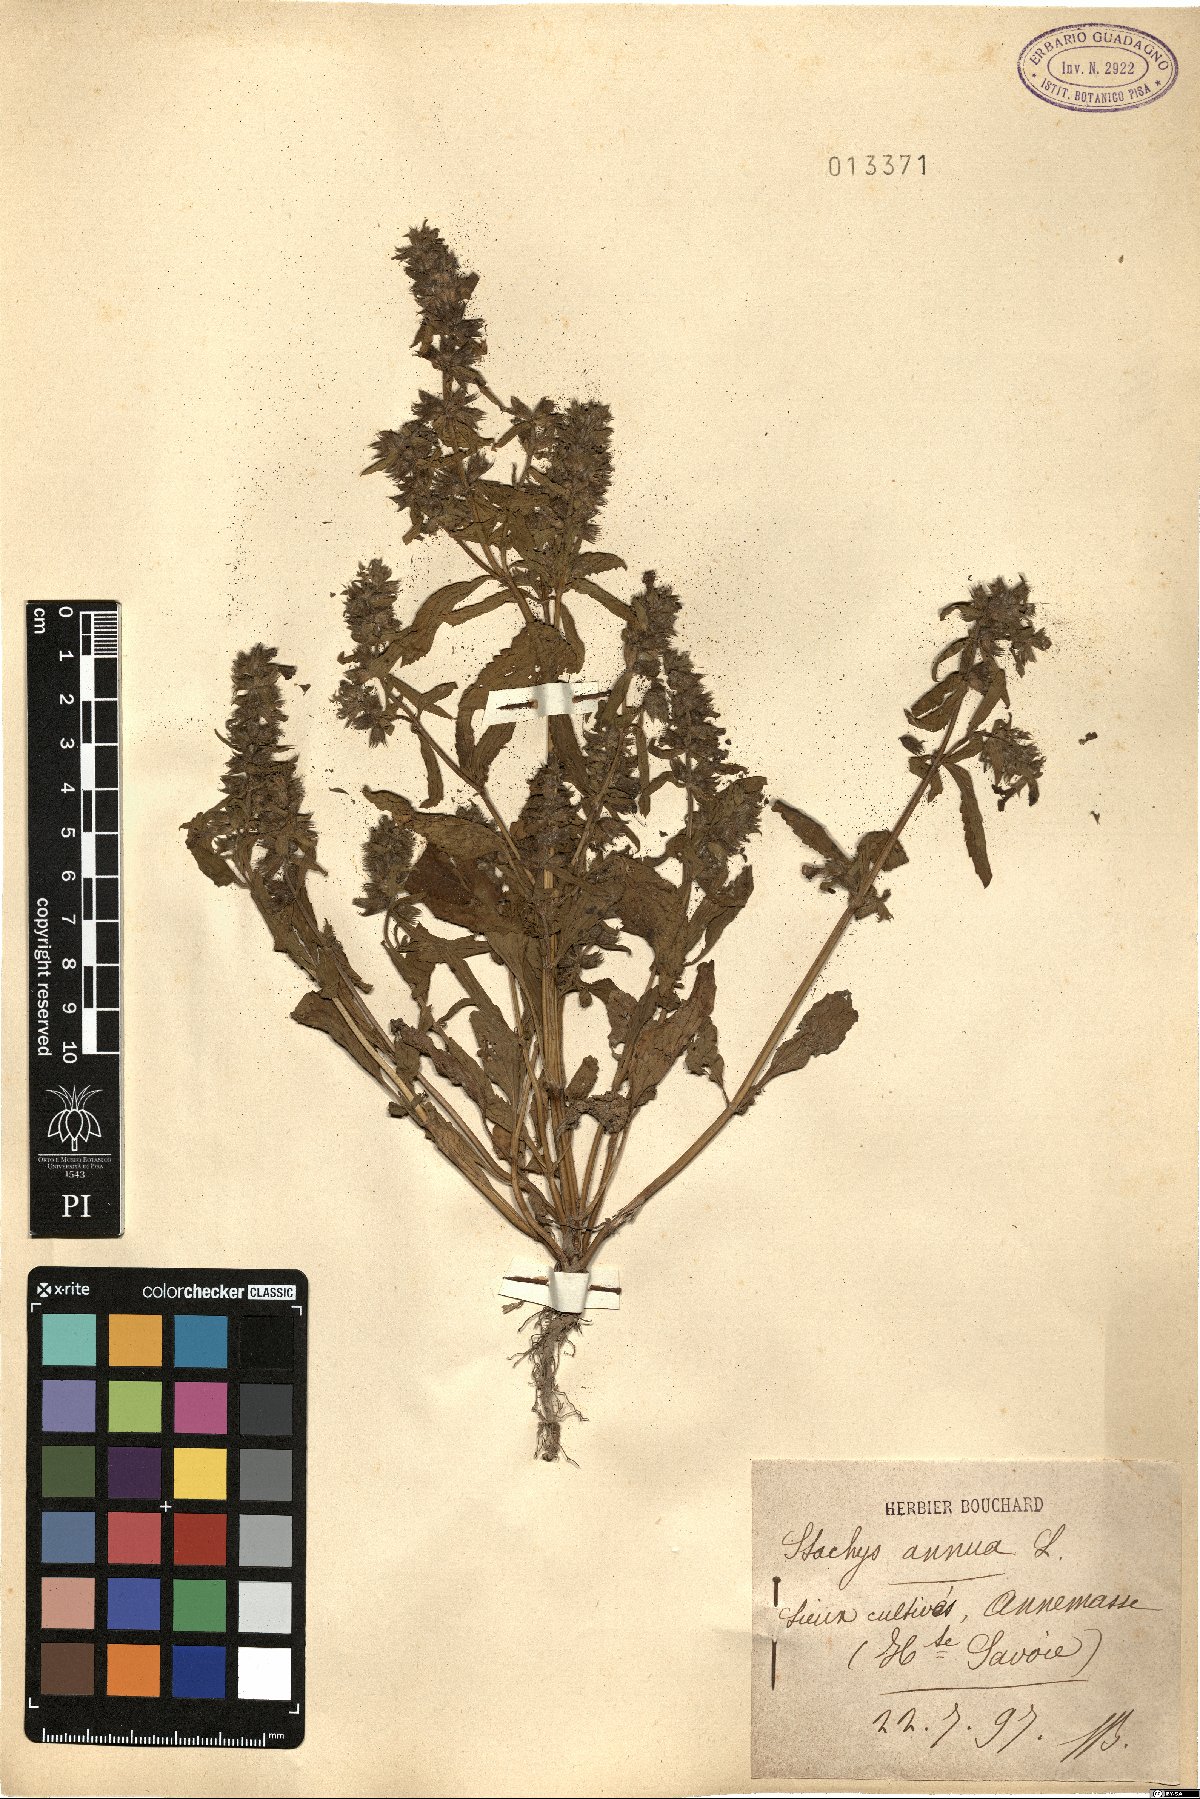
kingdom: Plantae
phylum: Tracheophyta
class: Magnoliopsida
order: Lamiales
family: Lamiaceae
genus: Stachys
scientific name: Stachys annua
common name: Annual yellow-woundwort
